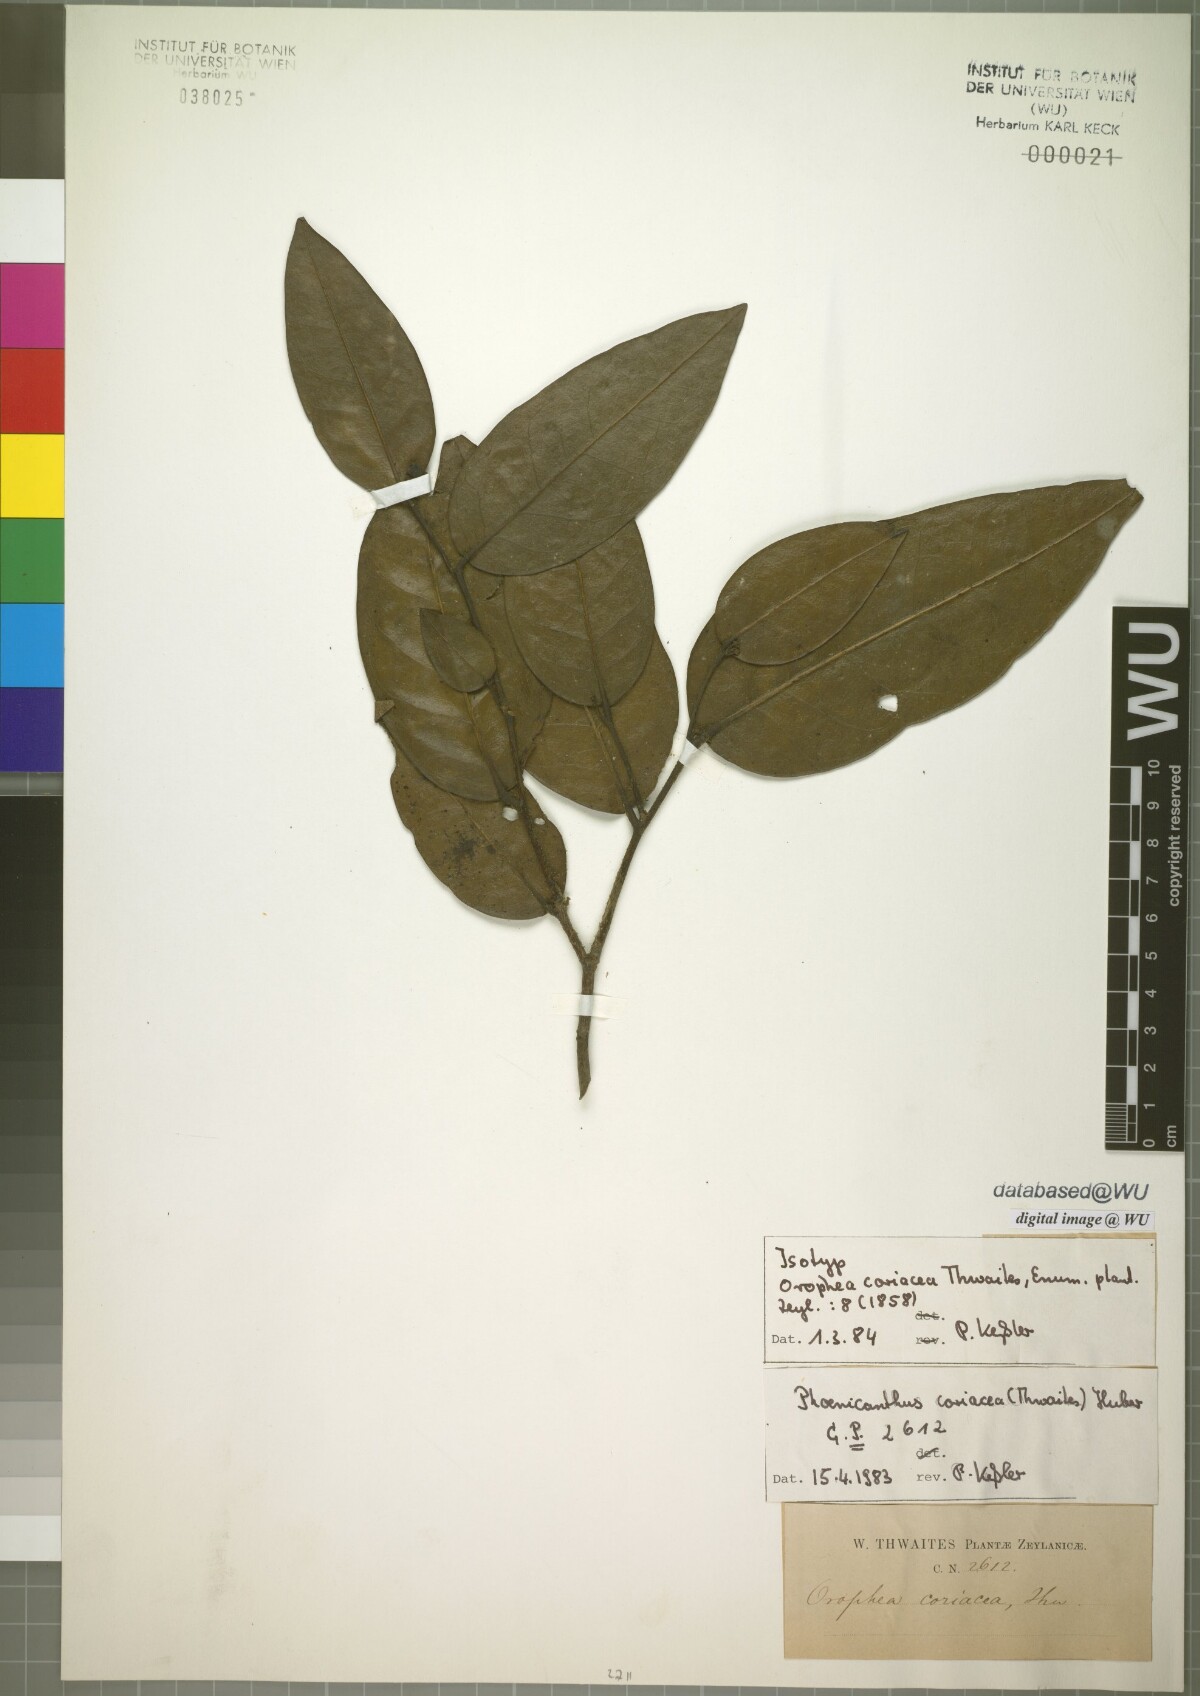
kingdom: Plantae
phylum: Tracheophyta
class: Magnoliopsida
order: Magnoliales
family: Annonaceae
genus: Phoenicanthus
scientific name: Phoenicanthus coriaceus
